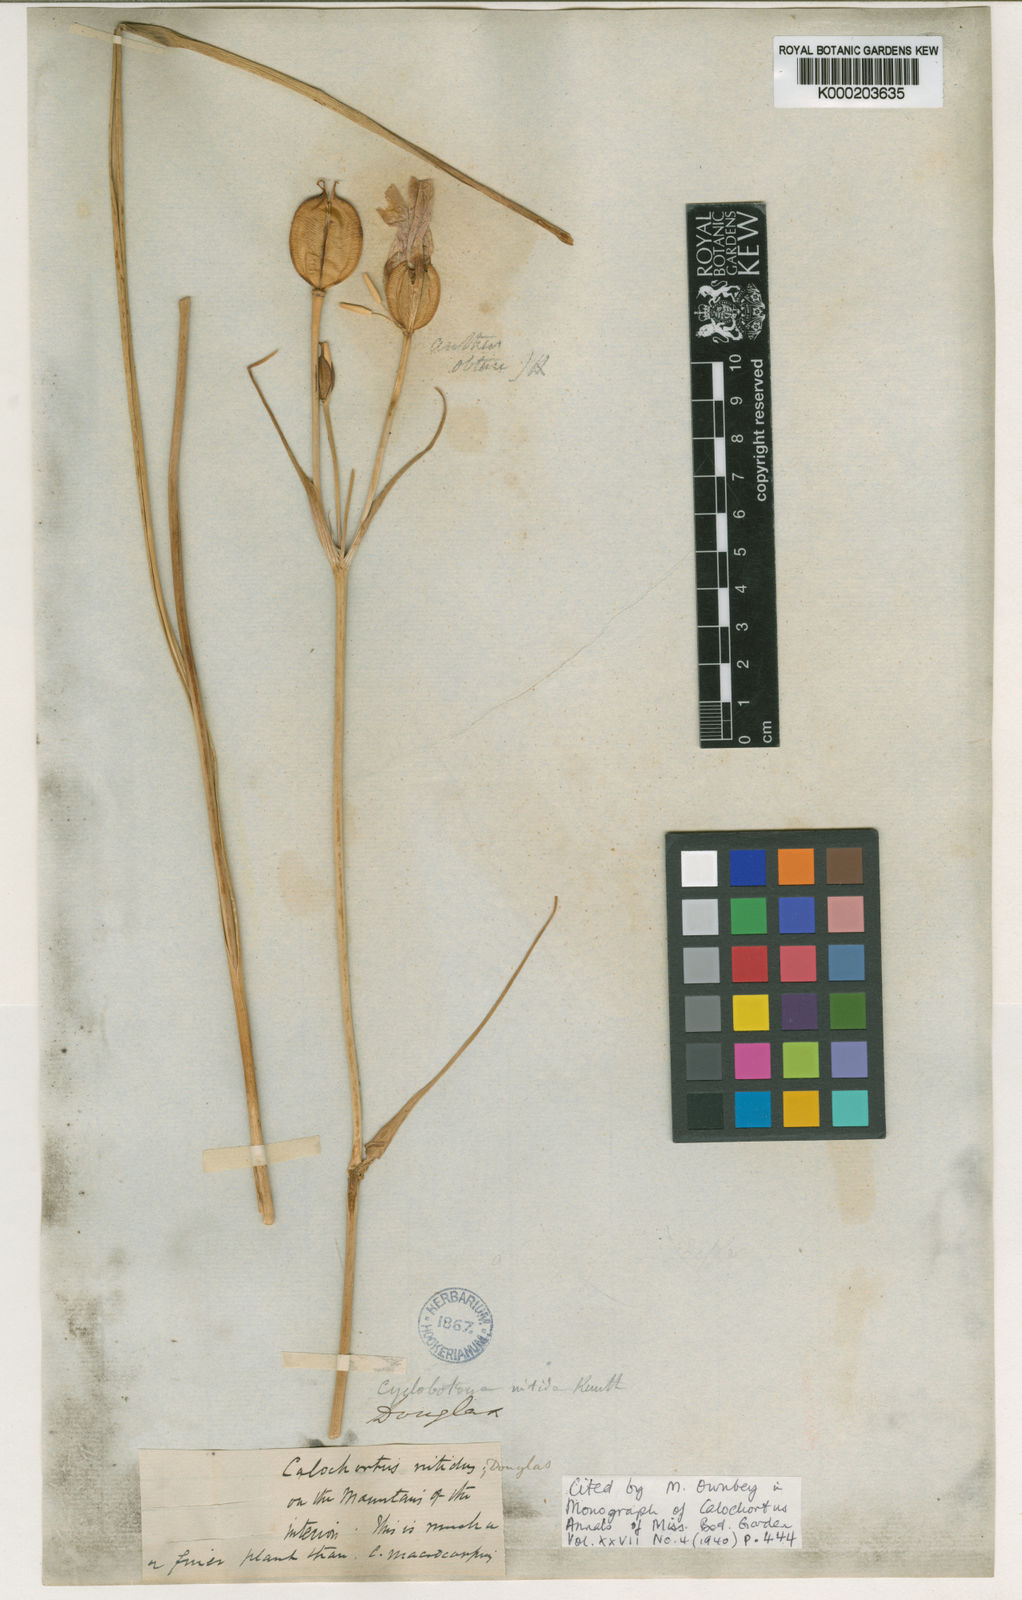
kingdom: Plantae
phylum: Tracheophyta
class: Liliopsida
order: Liliales
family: Liliaceae
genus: Calochortus
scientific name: Calochortus nitidus
